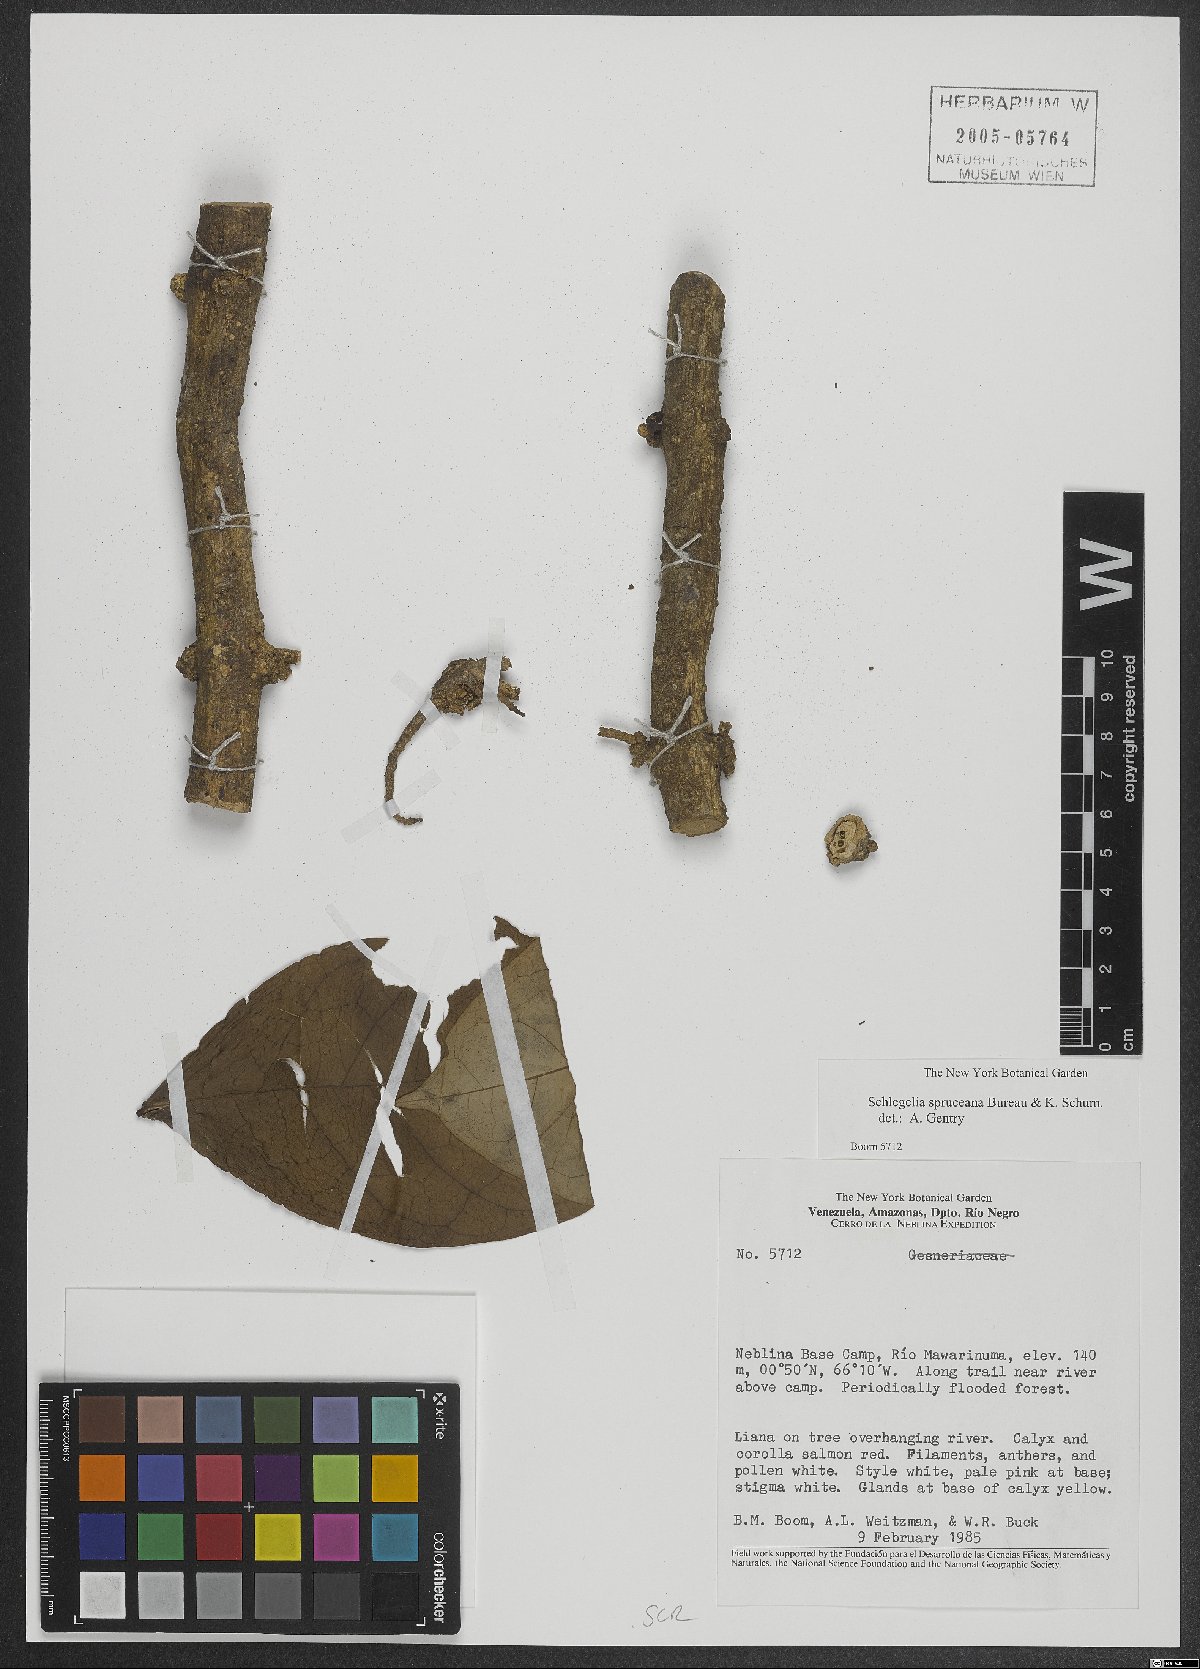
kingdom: Plantae
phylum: Tracheophyta
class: Magnoliopsida
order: Lamiales
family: Schlegeliaceae
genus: Schlegelia
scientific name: Schlegelia spruceana
